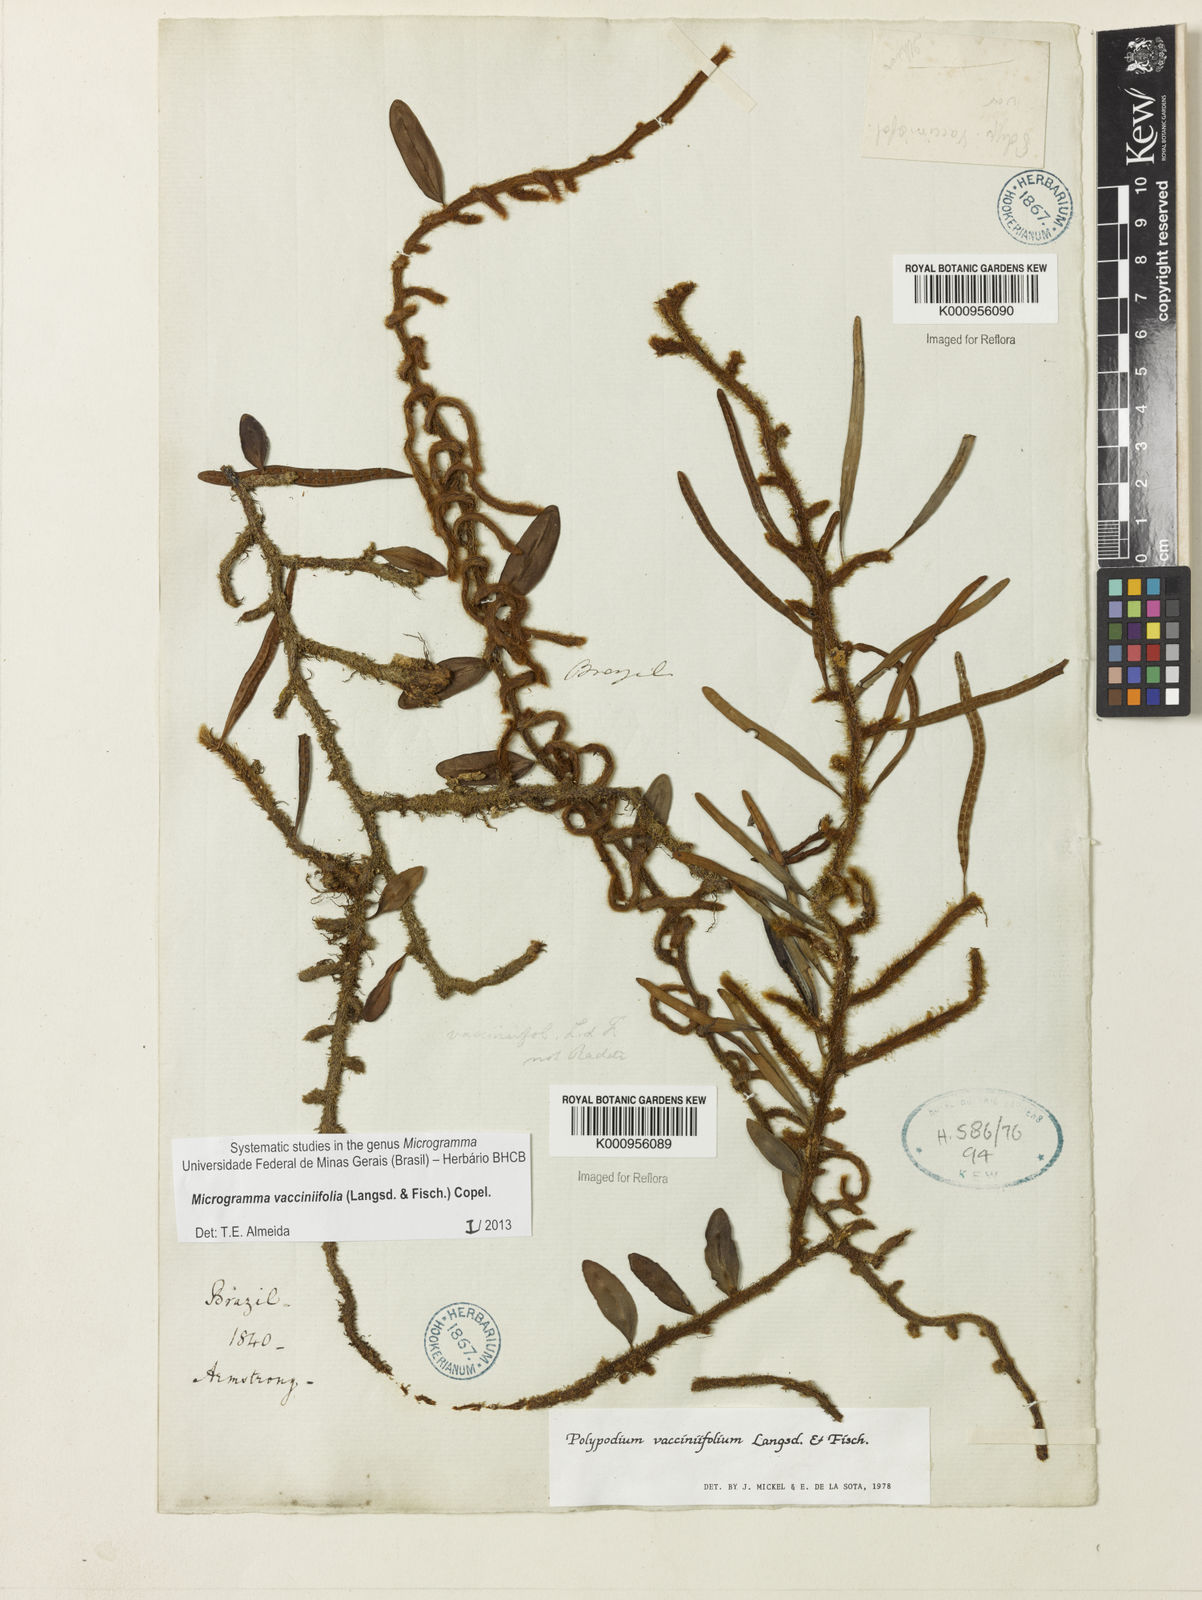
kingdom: Plantae
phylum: Tracheophyta
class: Polypodiopsida
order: Polypodiales
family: Polypodiaceae
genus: Phlebodium
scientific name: Phlebodium
